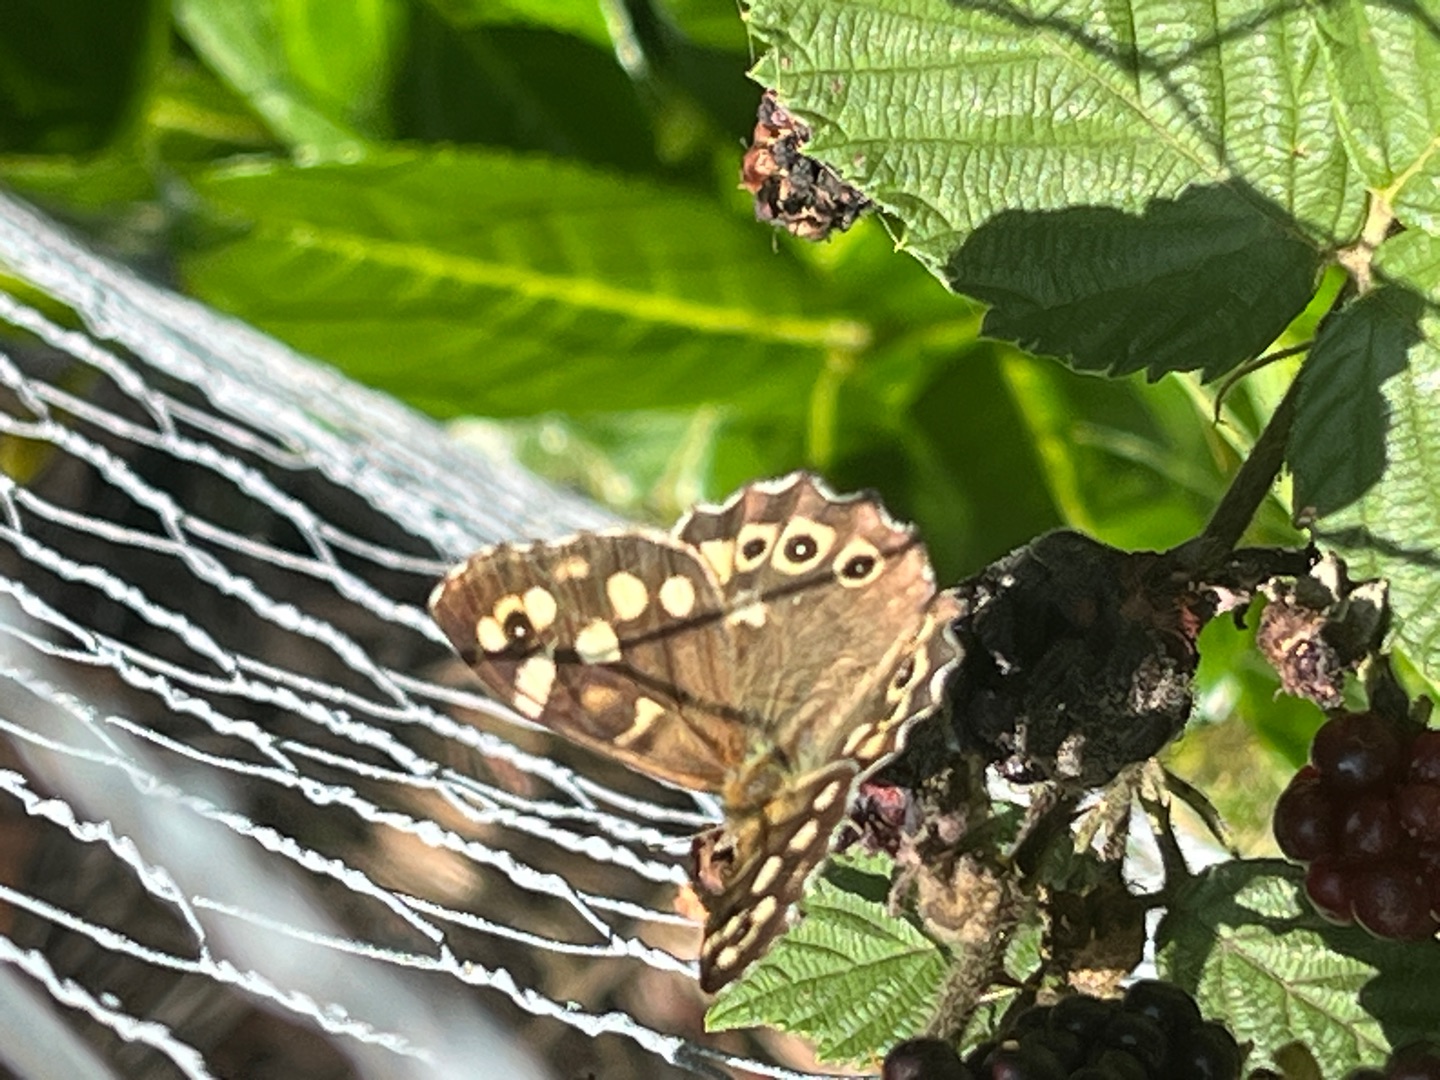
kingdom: Animalia
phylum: Arthropoda
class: Insecta
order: Lepidoptera
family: Nymphalidae
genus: Pararge
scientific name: Pararge aegeria
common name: Skovrandøje
